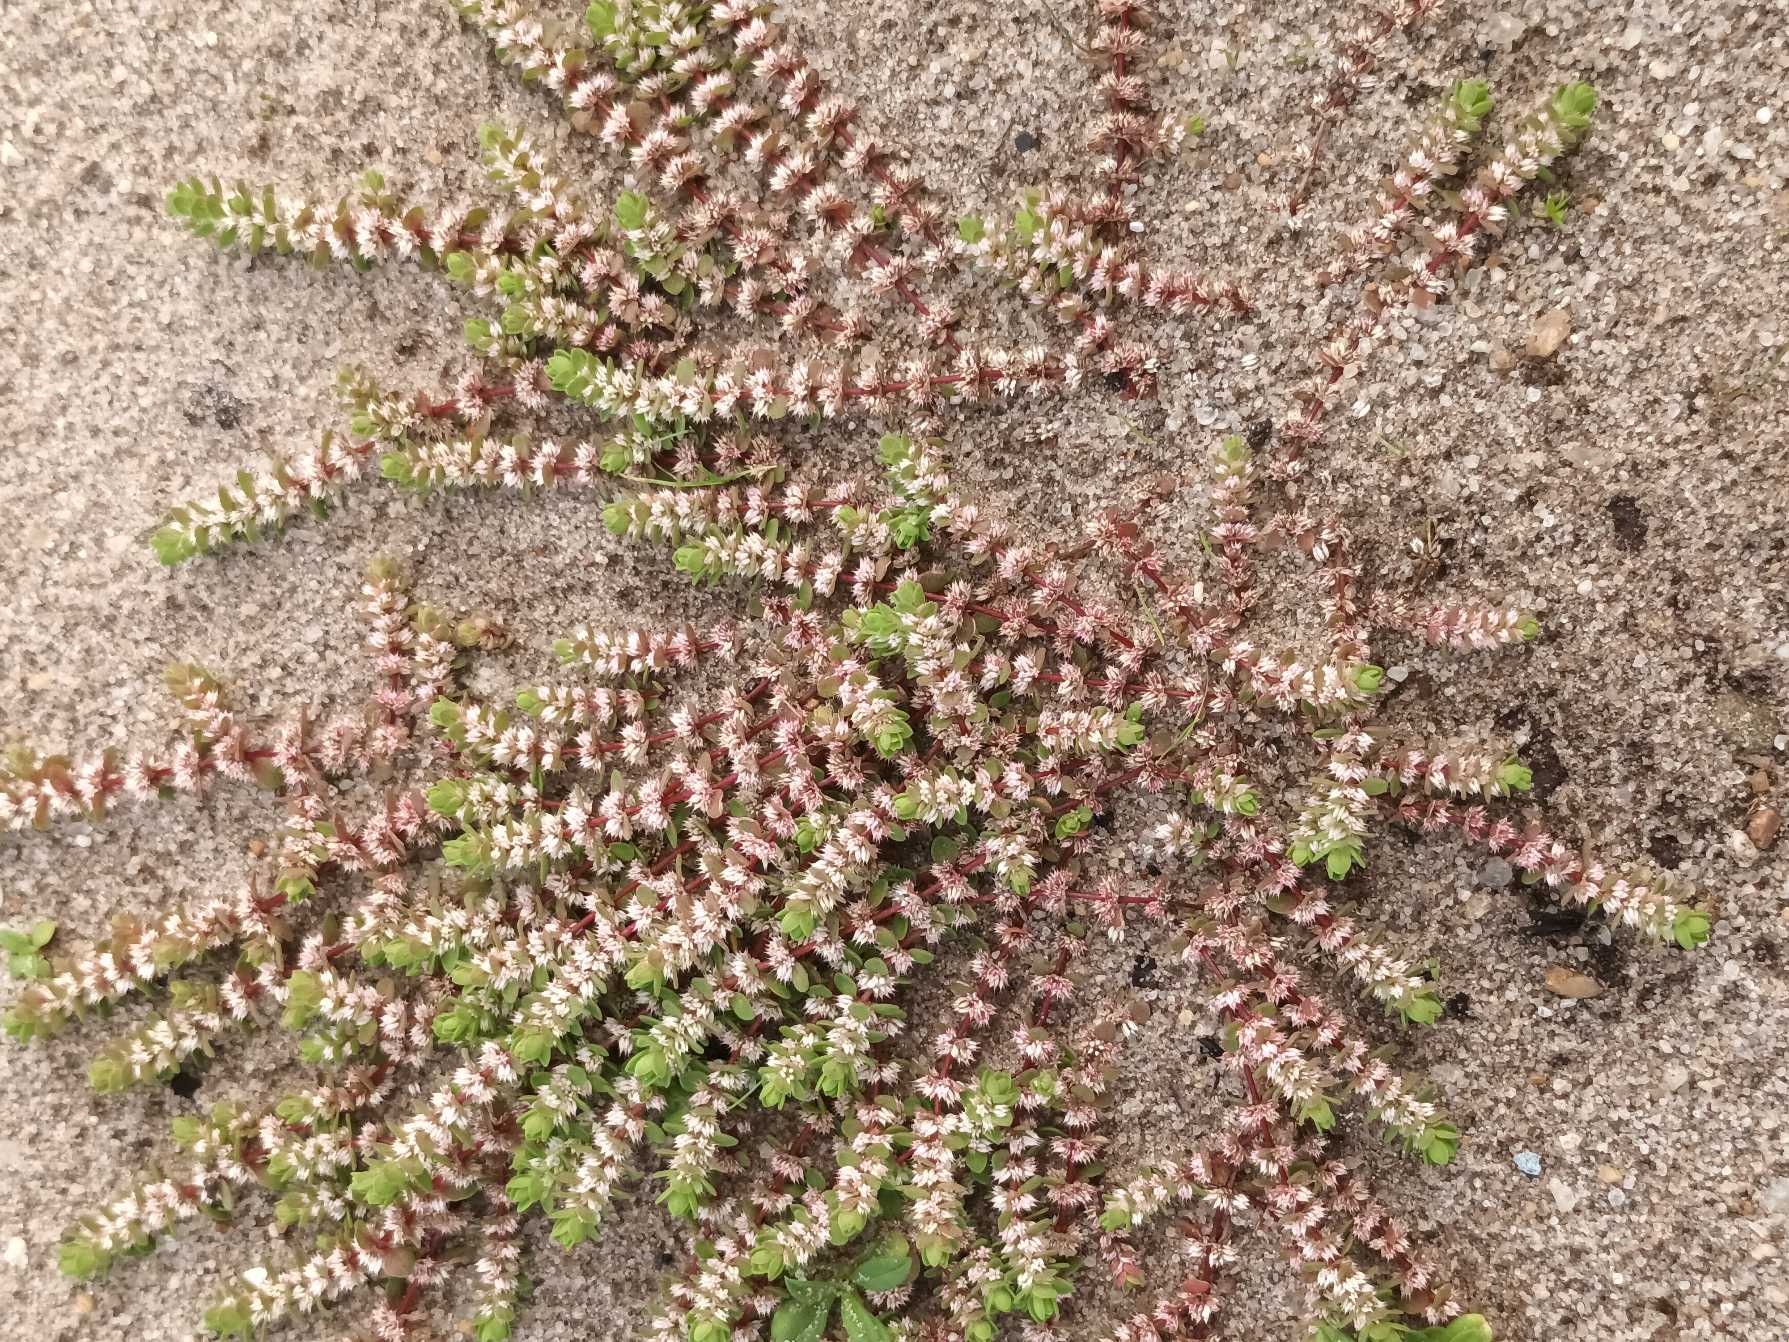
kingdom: Plantae
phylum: Tracheophyta
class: Magnoliopsida
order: Caryophyllales
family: Caryophyllaceae
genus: Illecebrum
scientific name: Illecebrum verticillatum
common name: Bruskbæger
